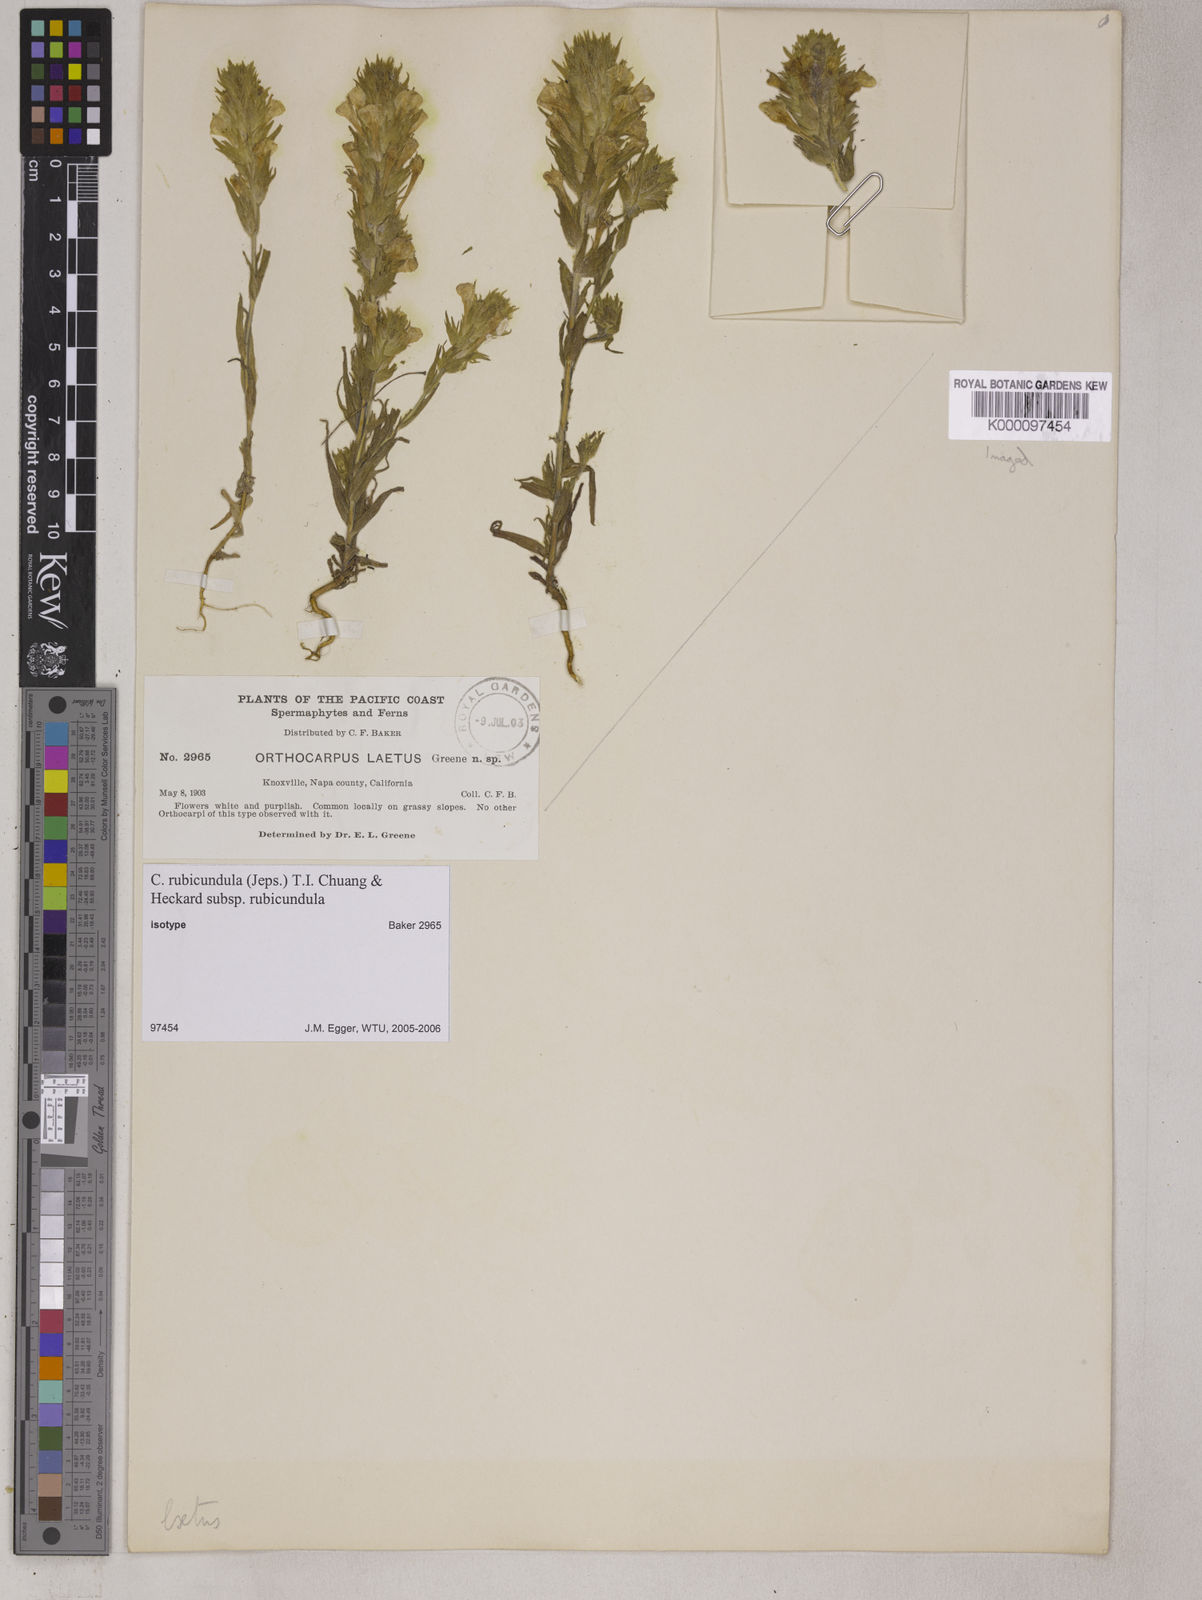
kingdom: Plantae
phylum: Tracheophyta
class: Magnoliopsida
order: Lamiales
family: Orobanchaceae
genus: Castilleja
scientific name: Castilleja rubicundula
